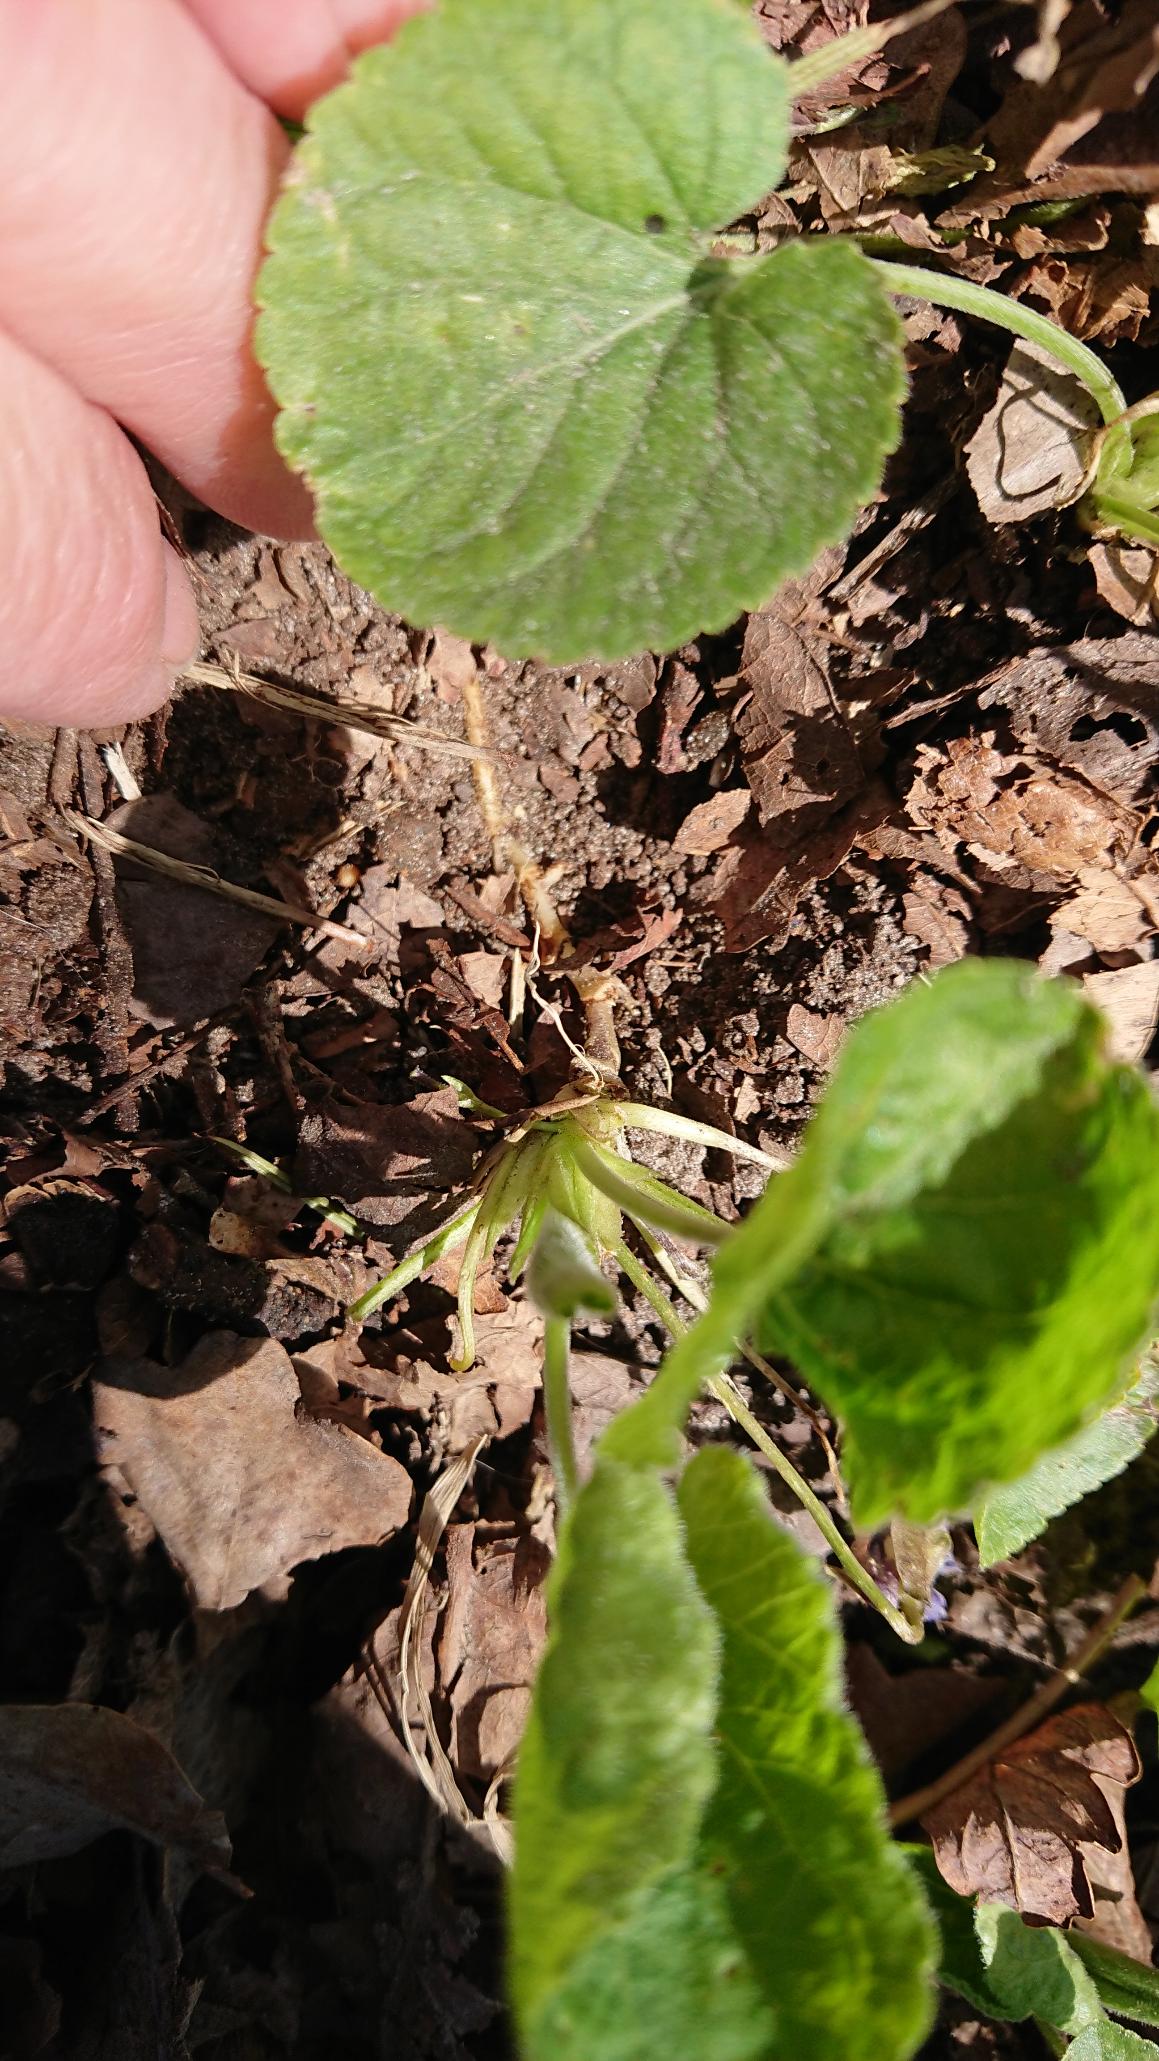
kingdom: Plantae
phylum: Tracheophyta
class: Magnoliopsida
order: Malpighiales
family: Violaceae
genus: Viola
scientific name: Viola odorata
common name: Marts-viol
